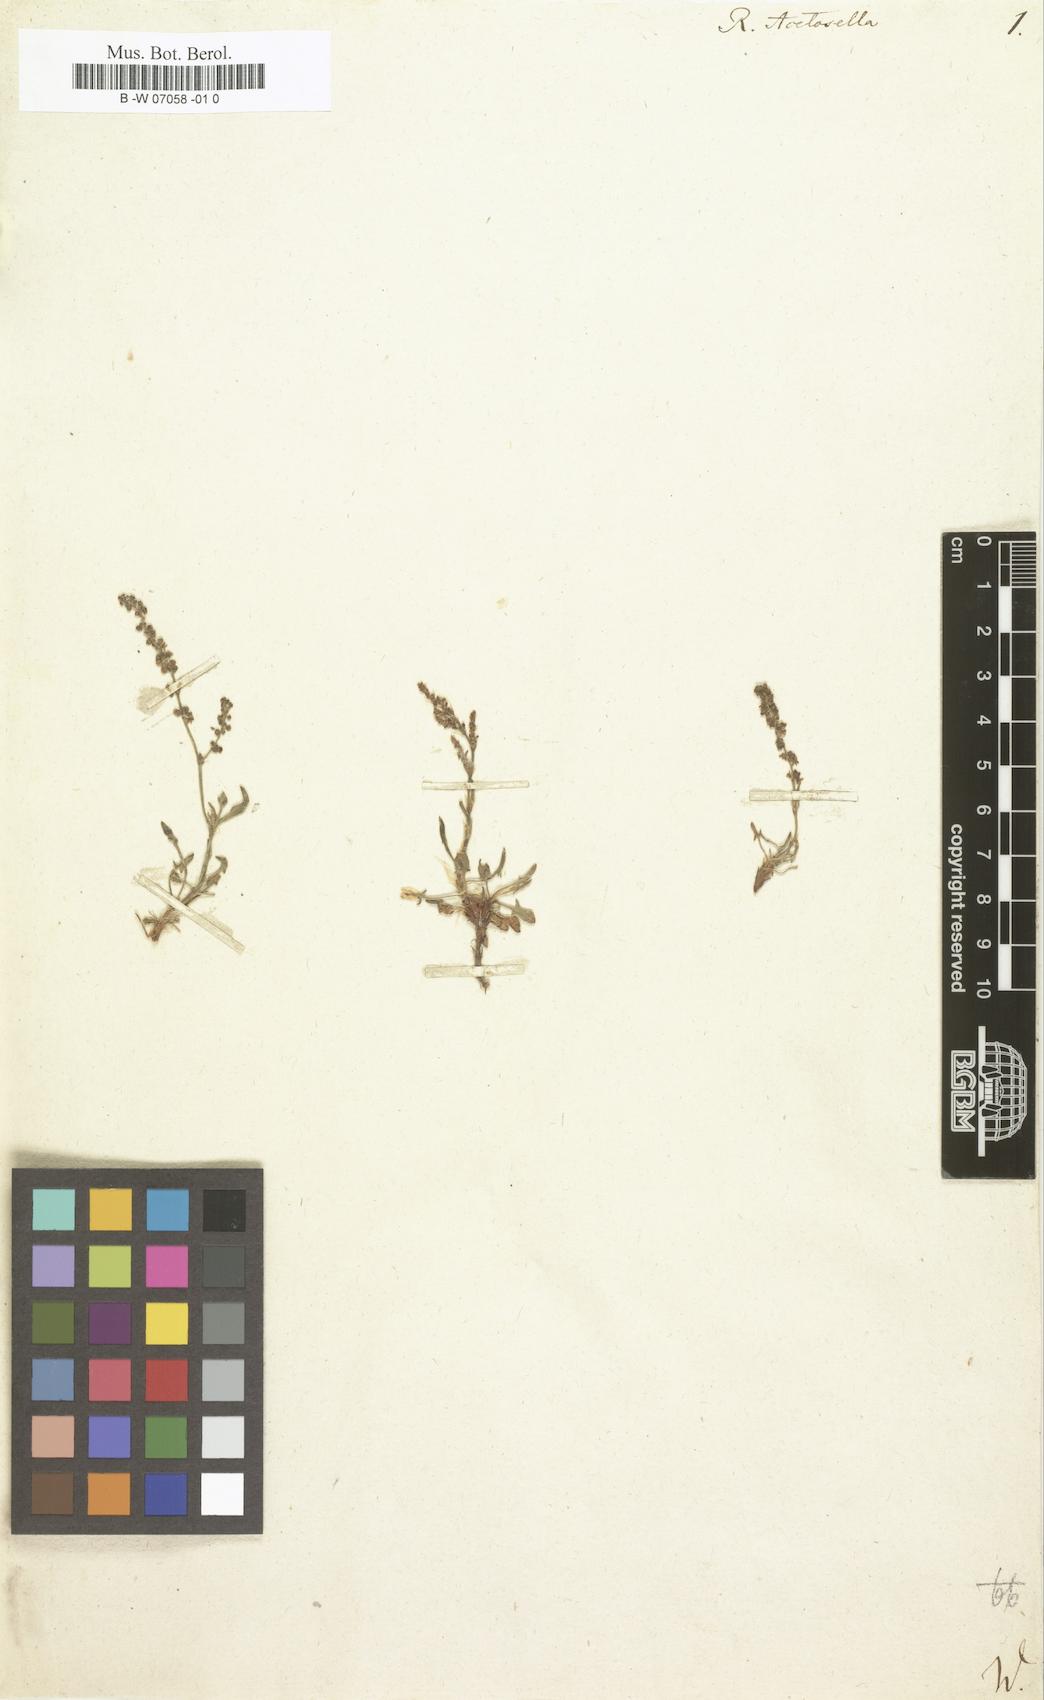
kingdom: Plantae
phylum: Tracheophyta
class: Magnoliopsida
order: Caryophyllales
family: Polygonaceae
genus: Rumex
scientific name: Rumex acetosella
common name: Common sheep sorrel
